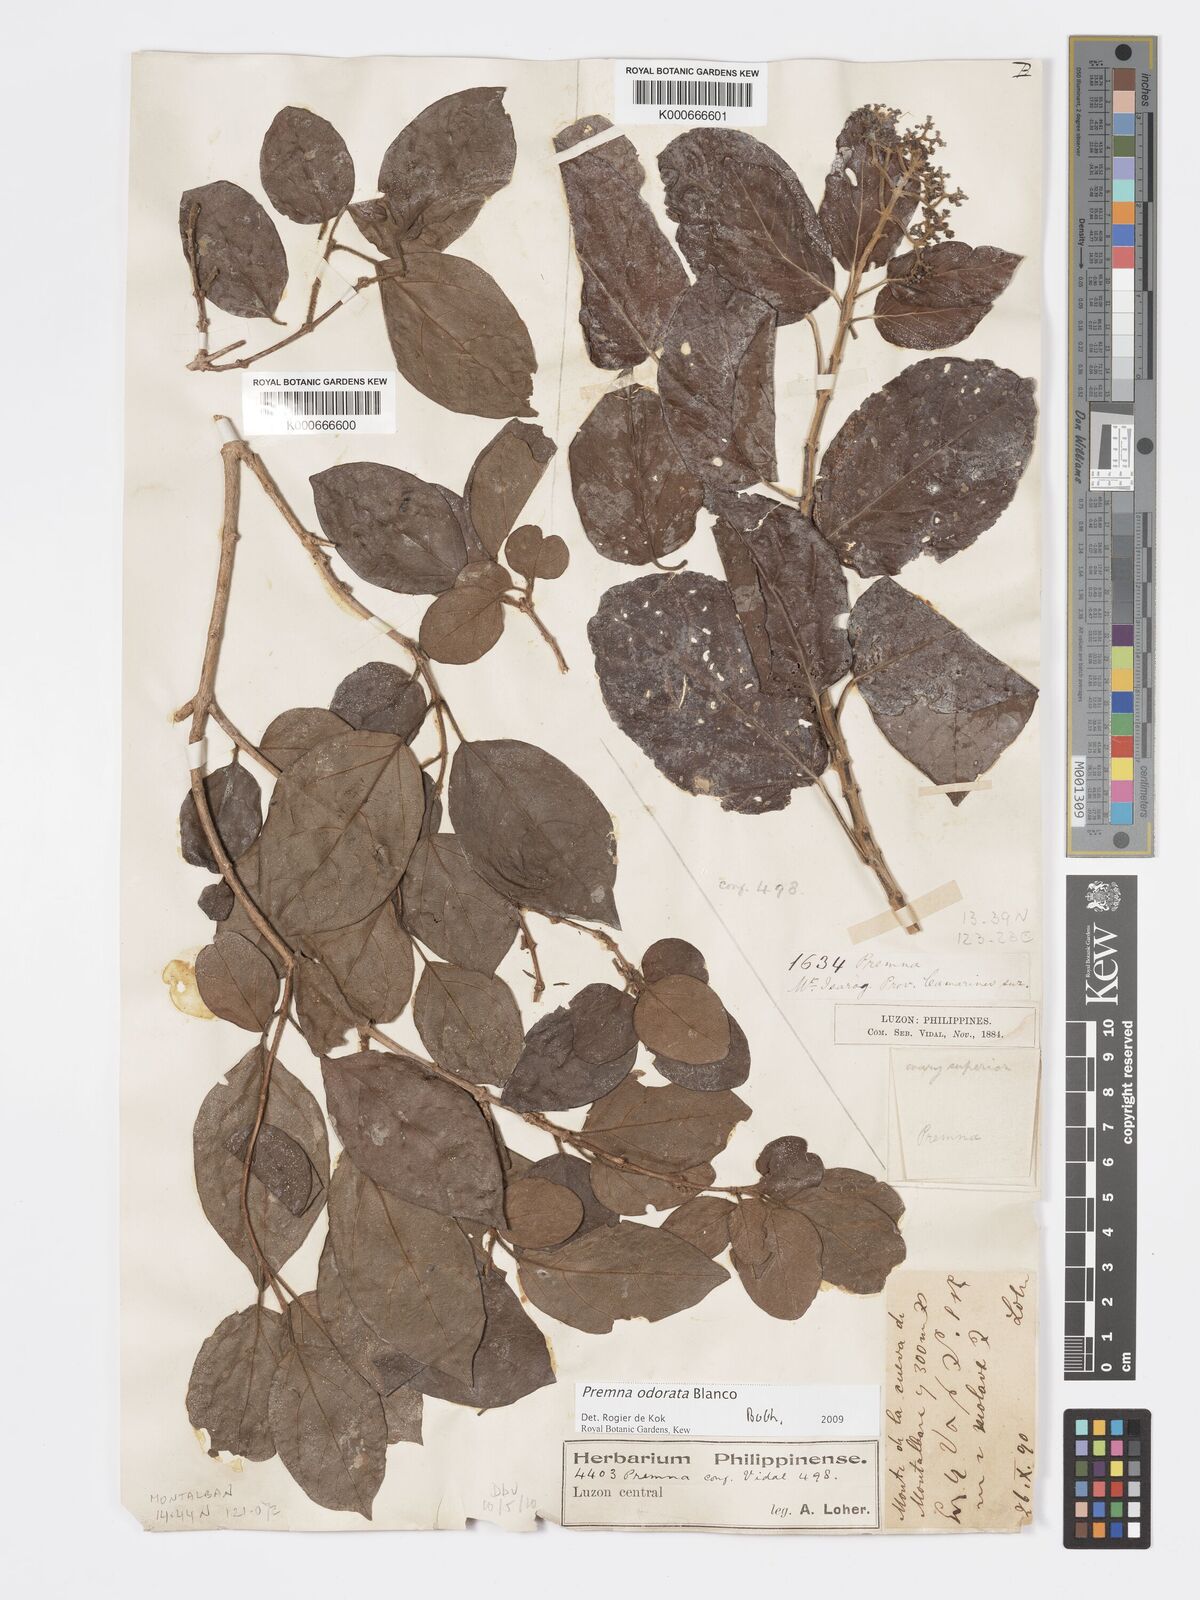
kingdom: Plantae
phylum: Tracheophyta
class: Magnoliopsida
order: Lamiales
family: Lamiaceae
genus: Premna
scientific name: Premna odorata
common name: Fragrant premna
